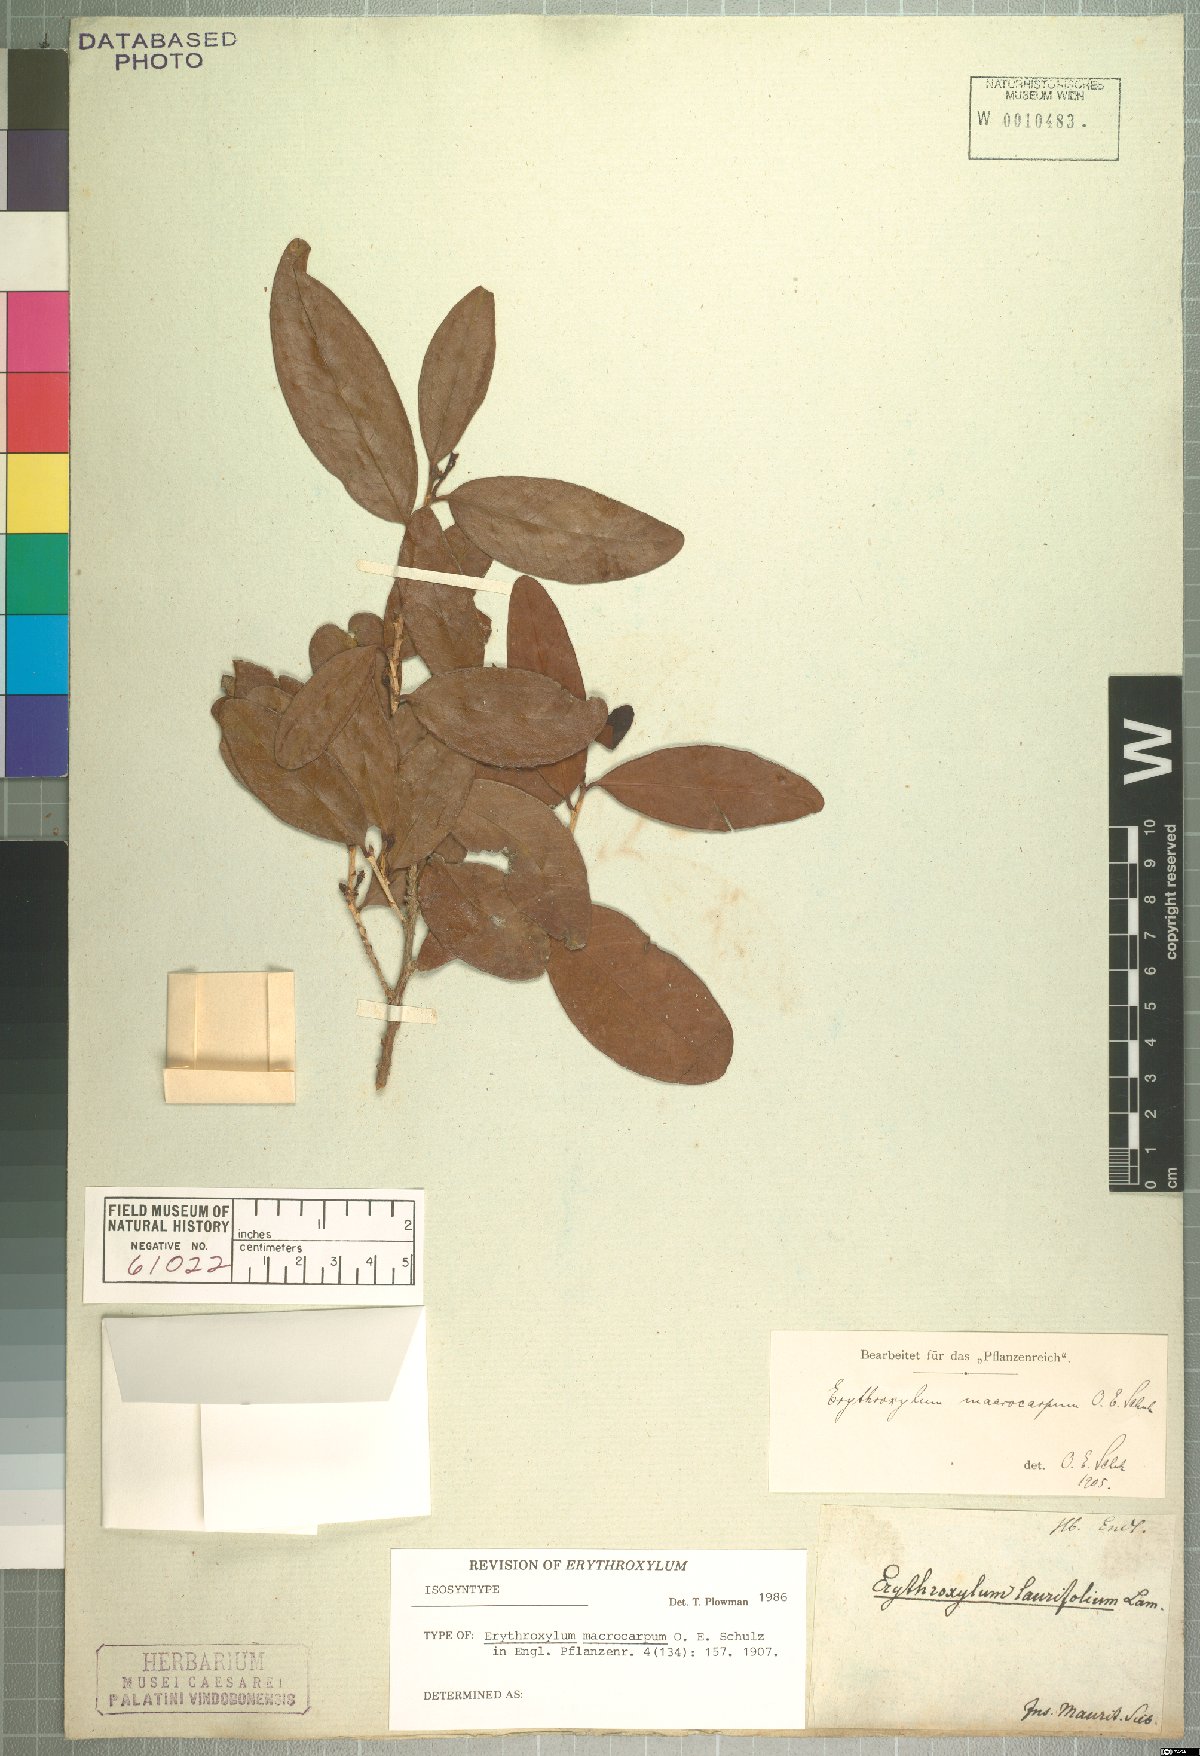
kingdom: Plantae
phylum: Tracheophyta
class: Magnoliopsida
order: Malpighiales
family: Erythroxylaceae
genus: Erythroxylum
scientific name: Erythroxylum macrocarpum
